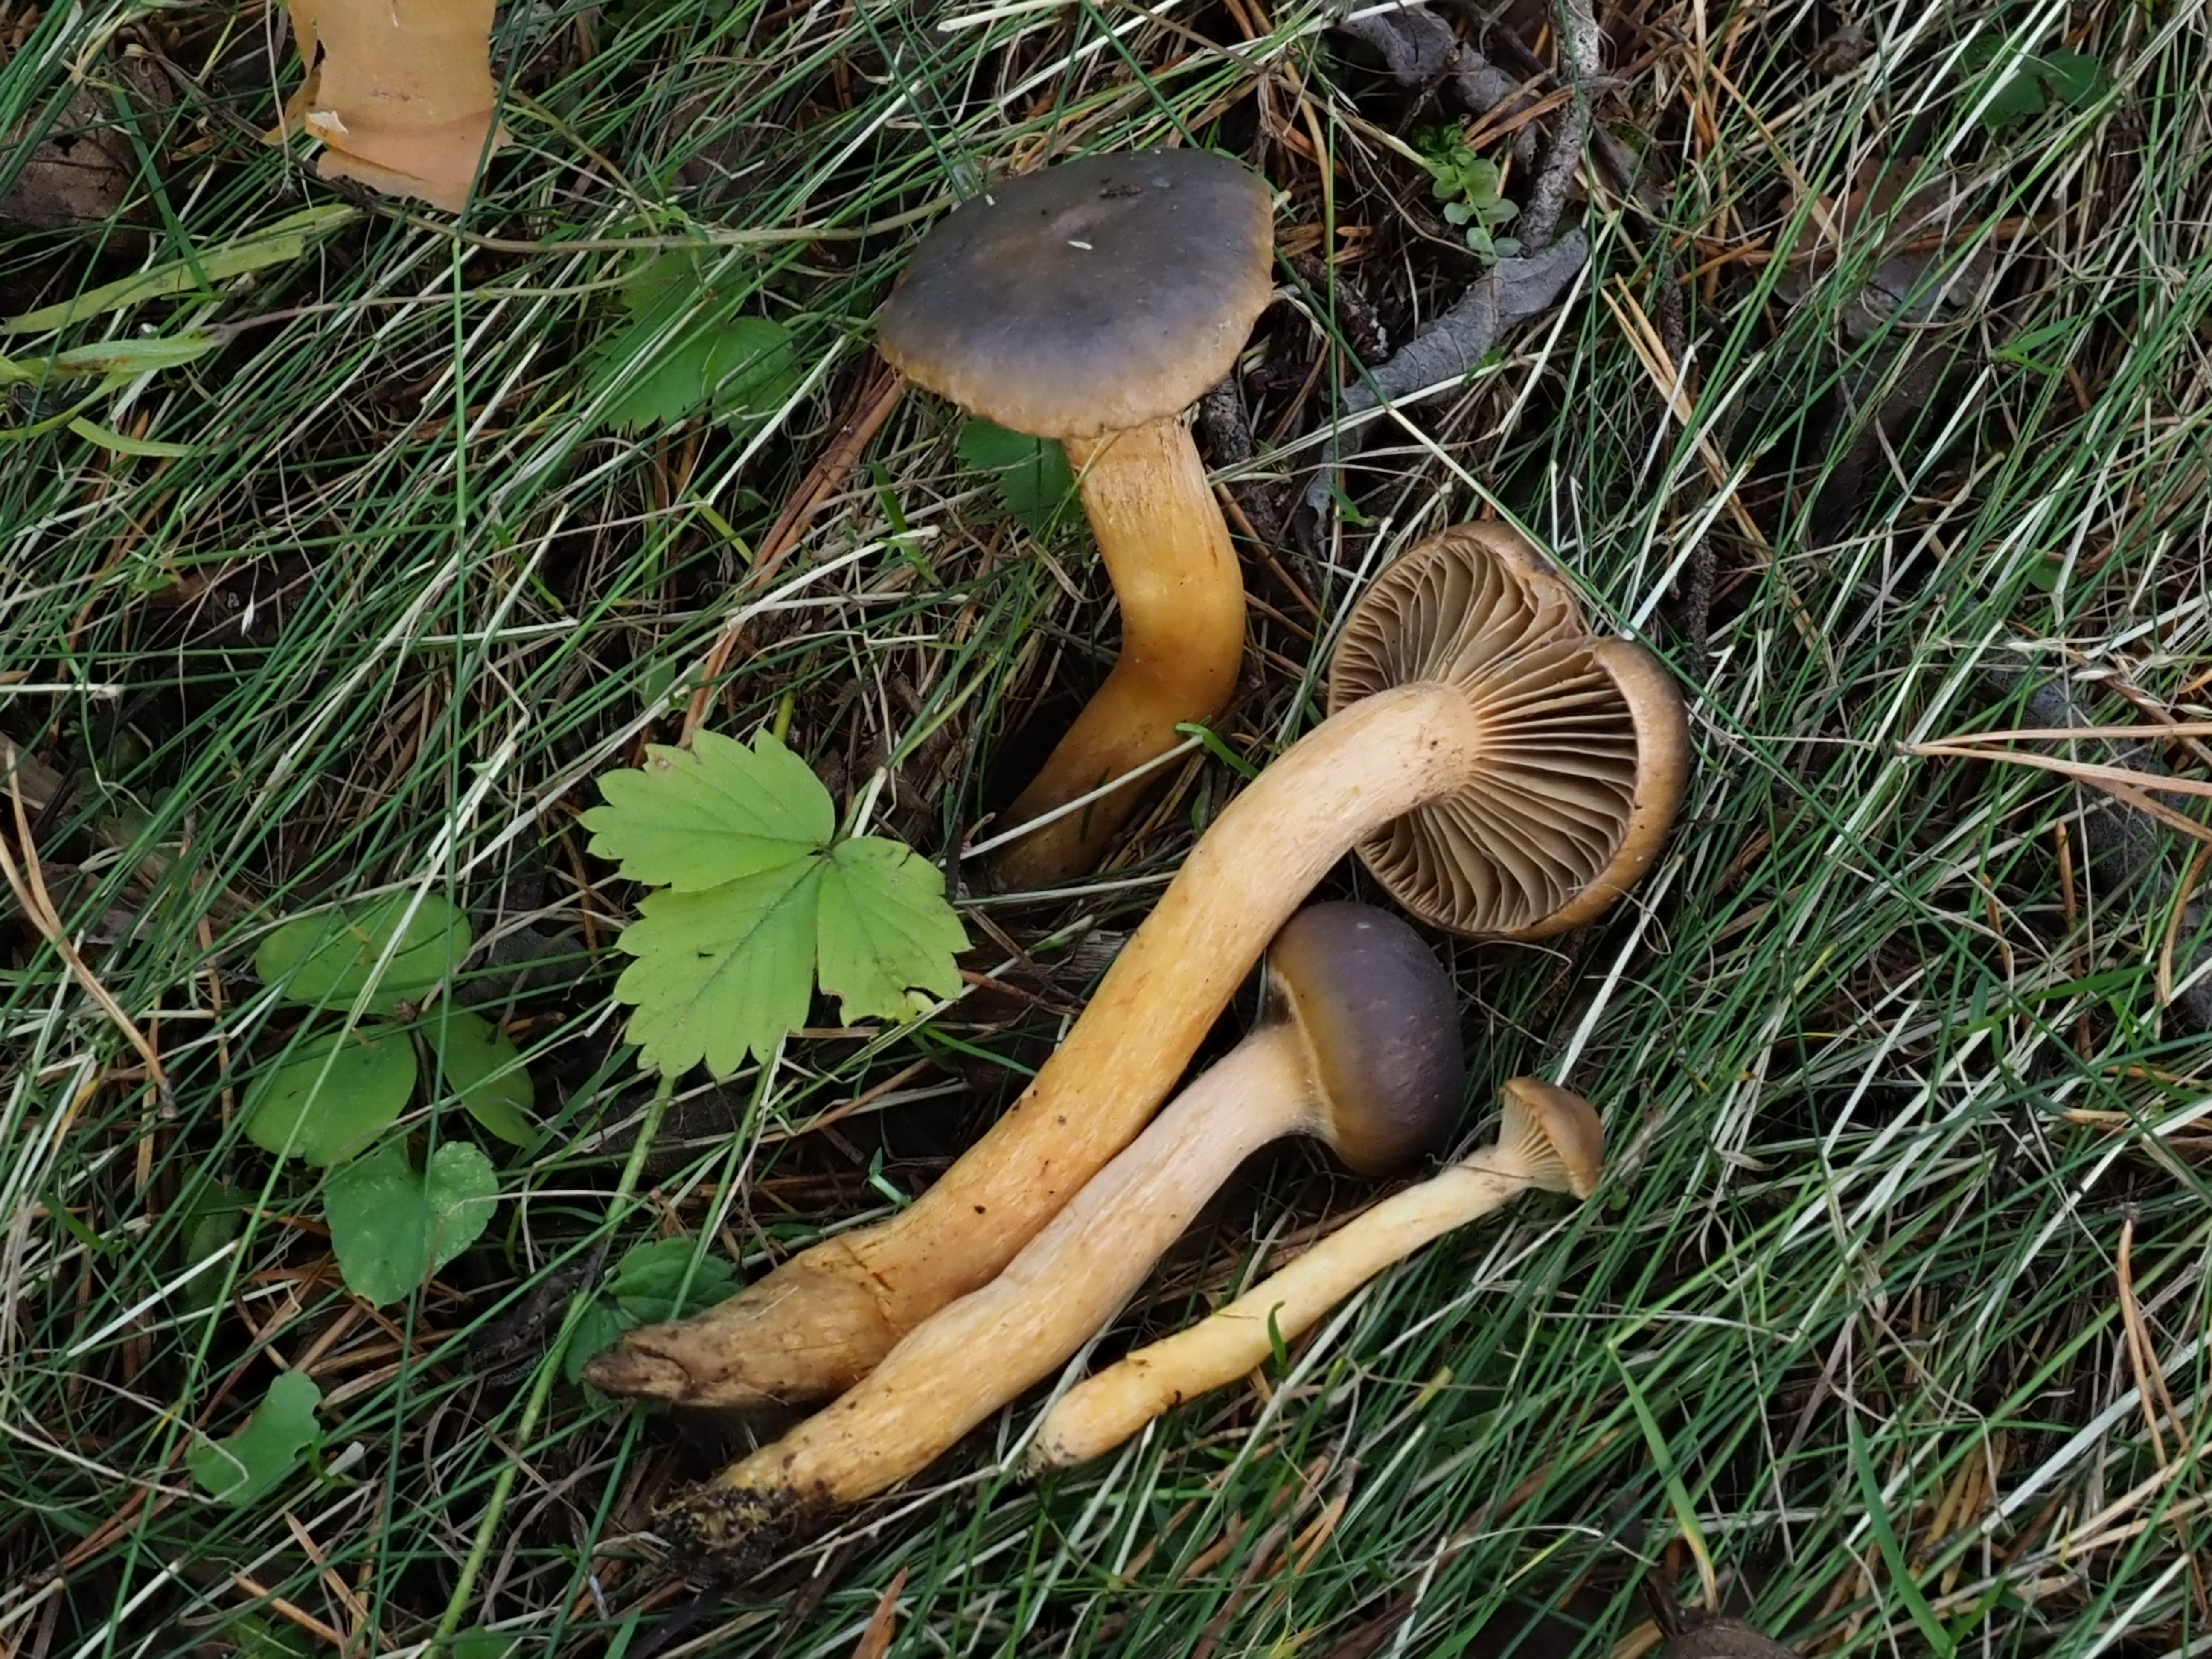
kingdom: Fungi
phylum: Basidiomycota
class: Agaricomycetes
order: Boletales
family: Gomphidiaceae
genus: Chroogomphus
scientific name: Chroogomphus rutilus
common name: Copper spike
